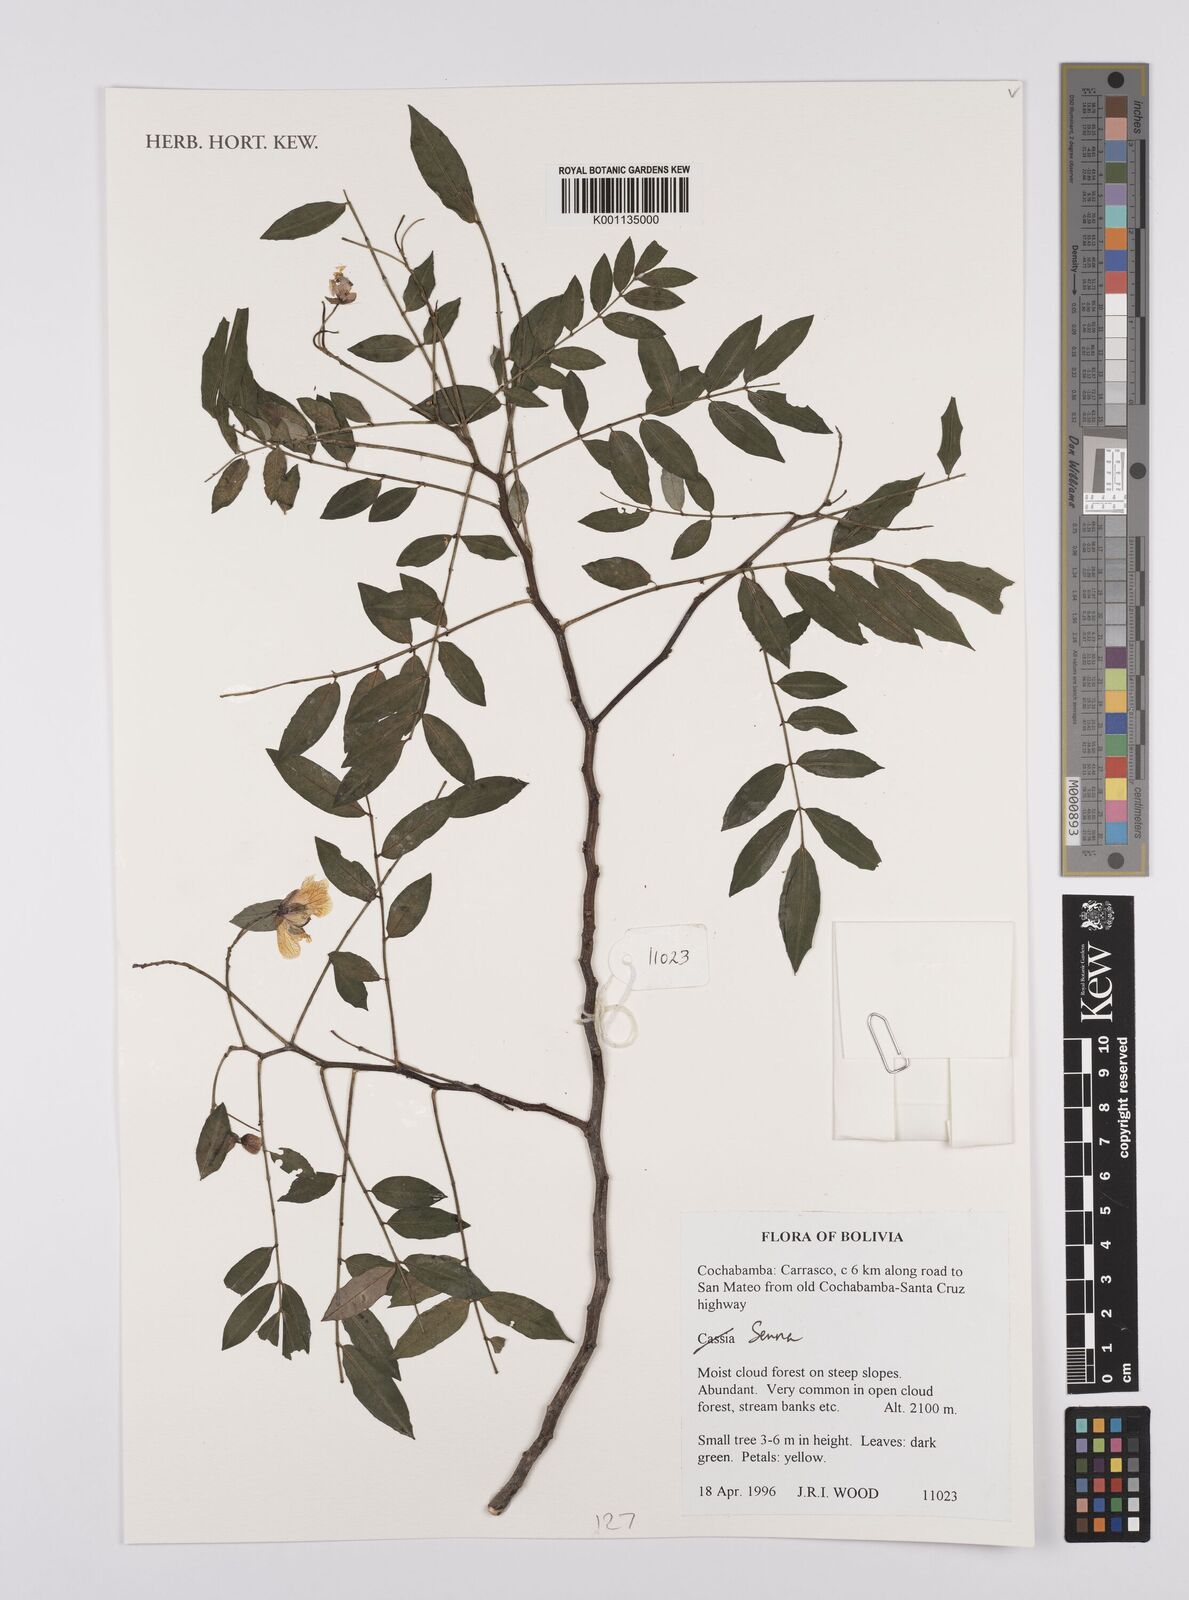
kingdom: Plantae
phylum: Tracheophyta
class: Magnoliopsida
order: Fabales
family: Fabaceae
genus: Senna
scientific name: Senna
